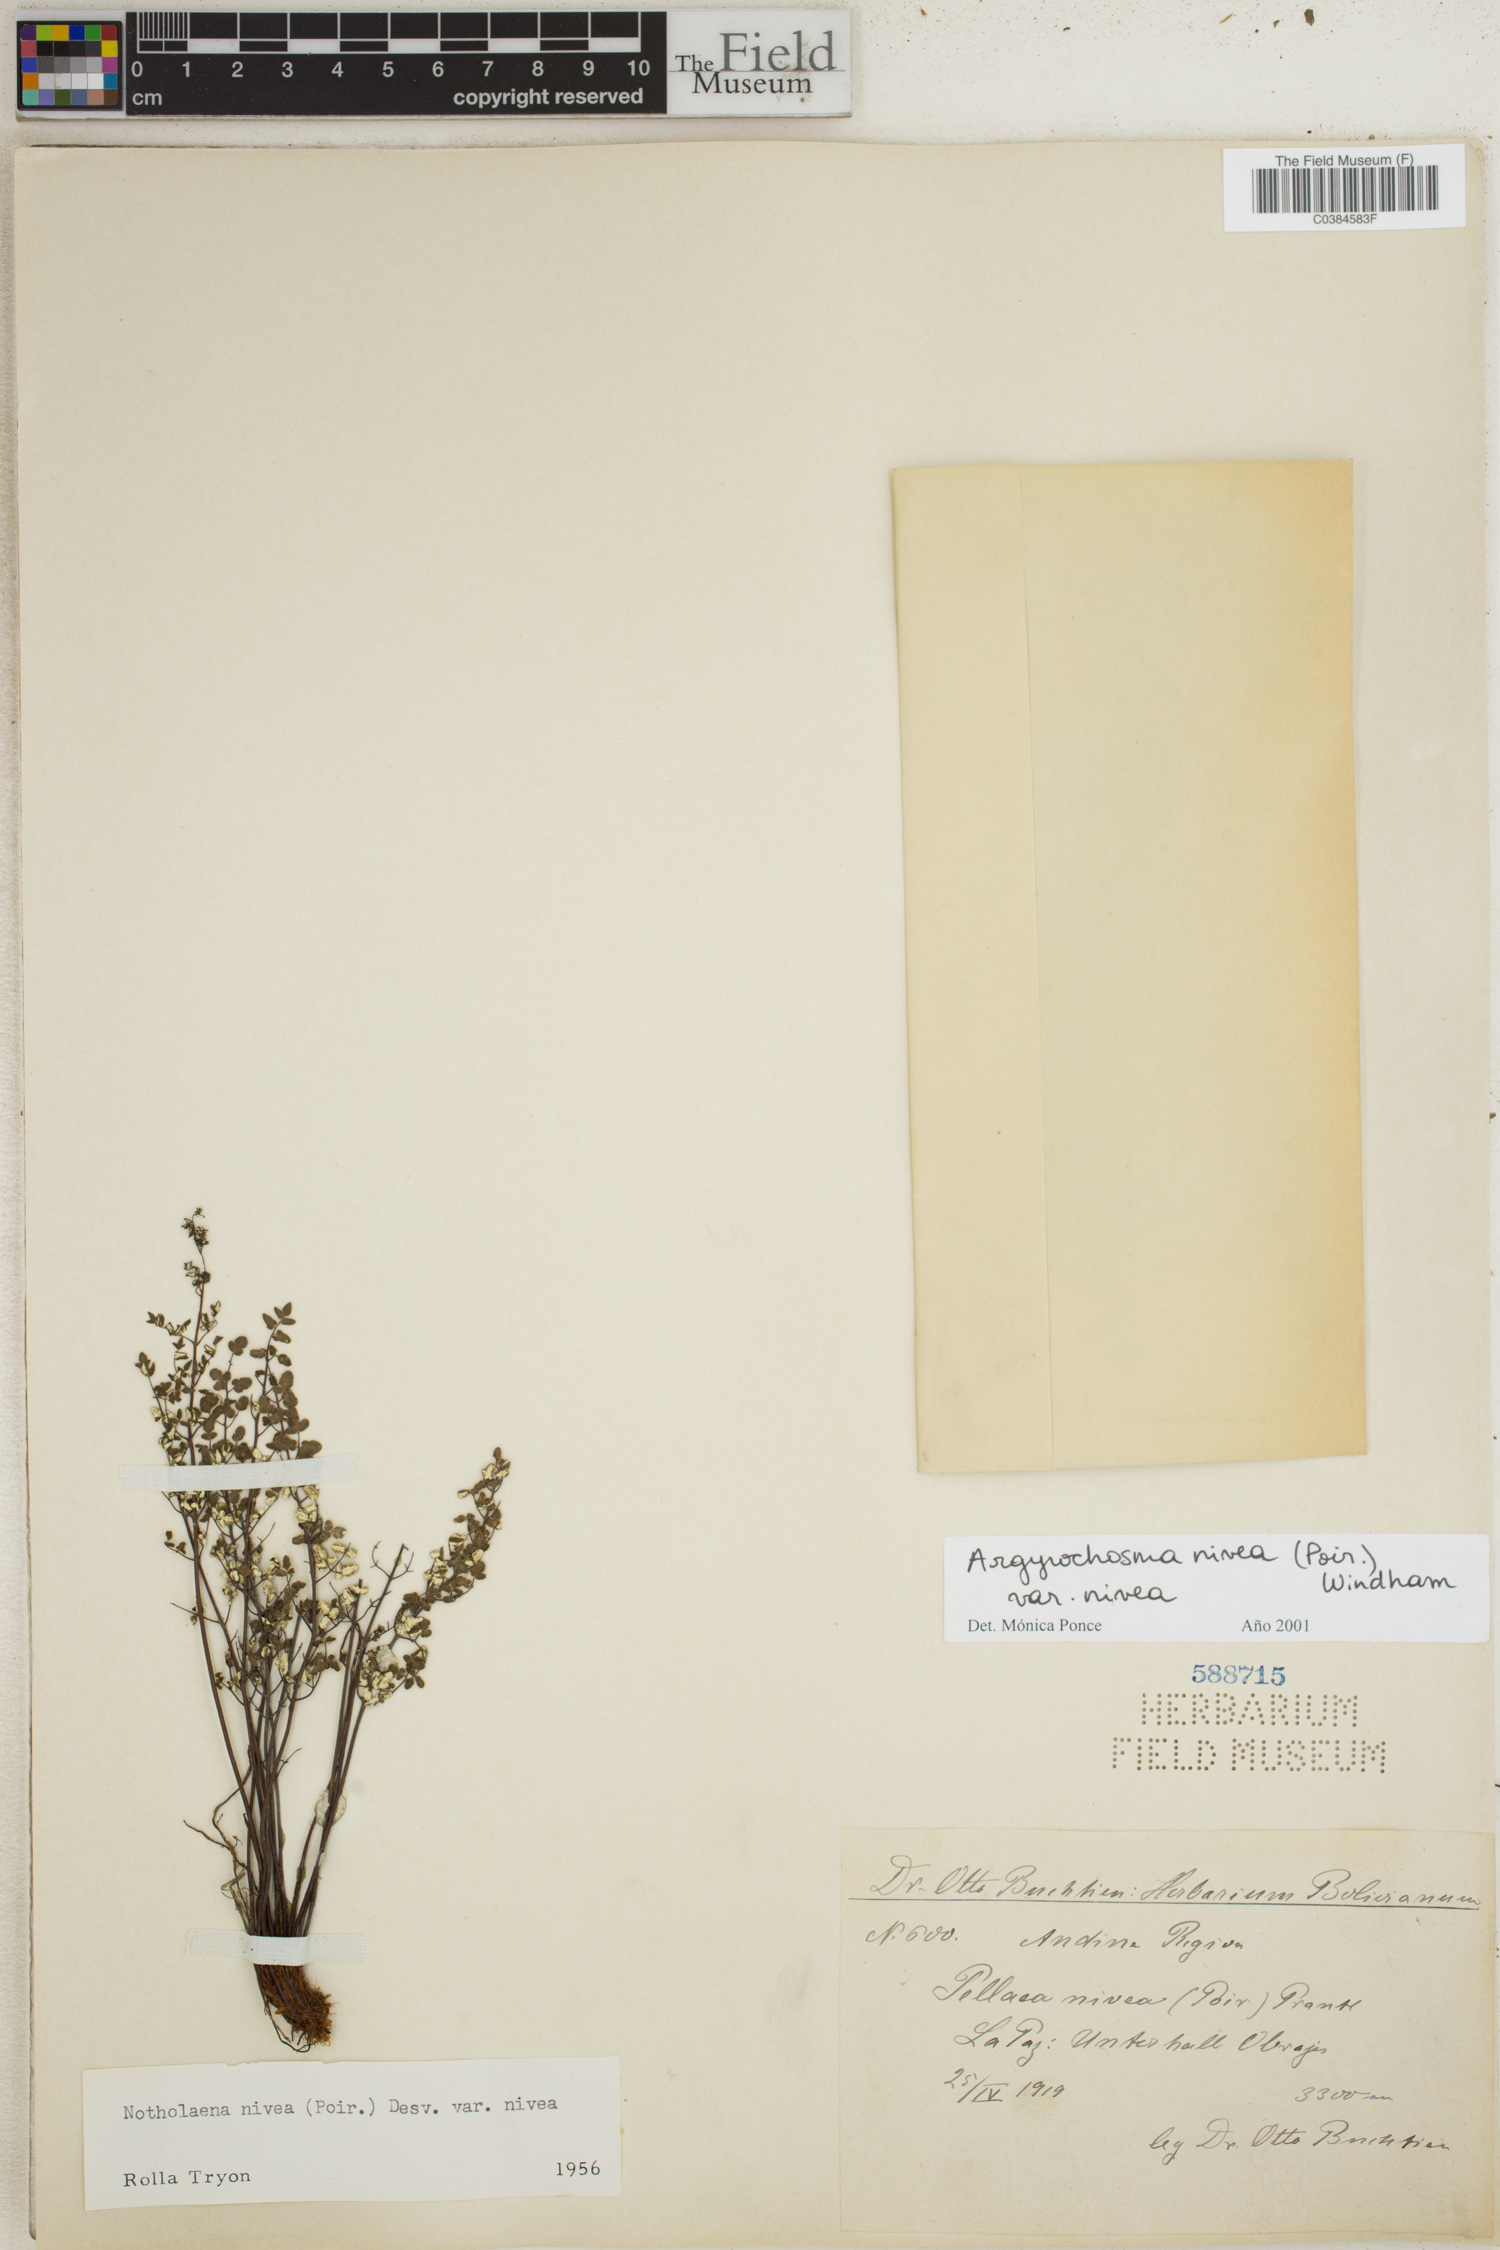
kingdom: Plantae
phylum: Tracheophyta
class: Polypodiopsida
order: Polypodiales
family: Pteridaceae
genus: Argyrochosma
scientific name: Argyrochosma nivea
